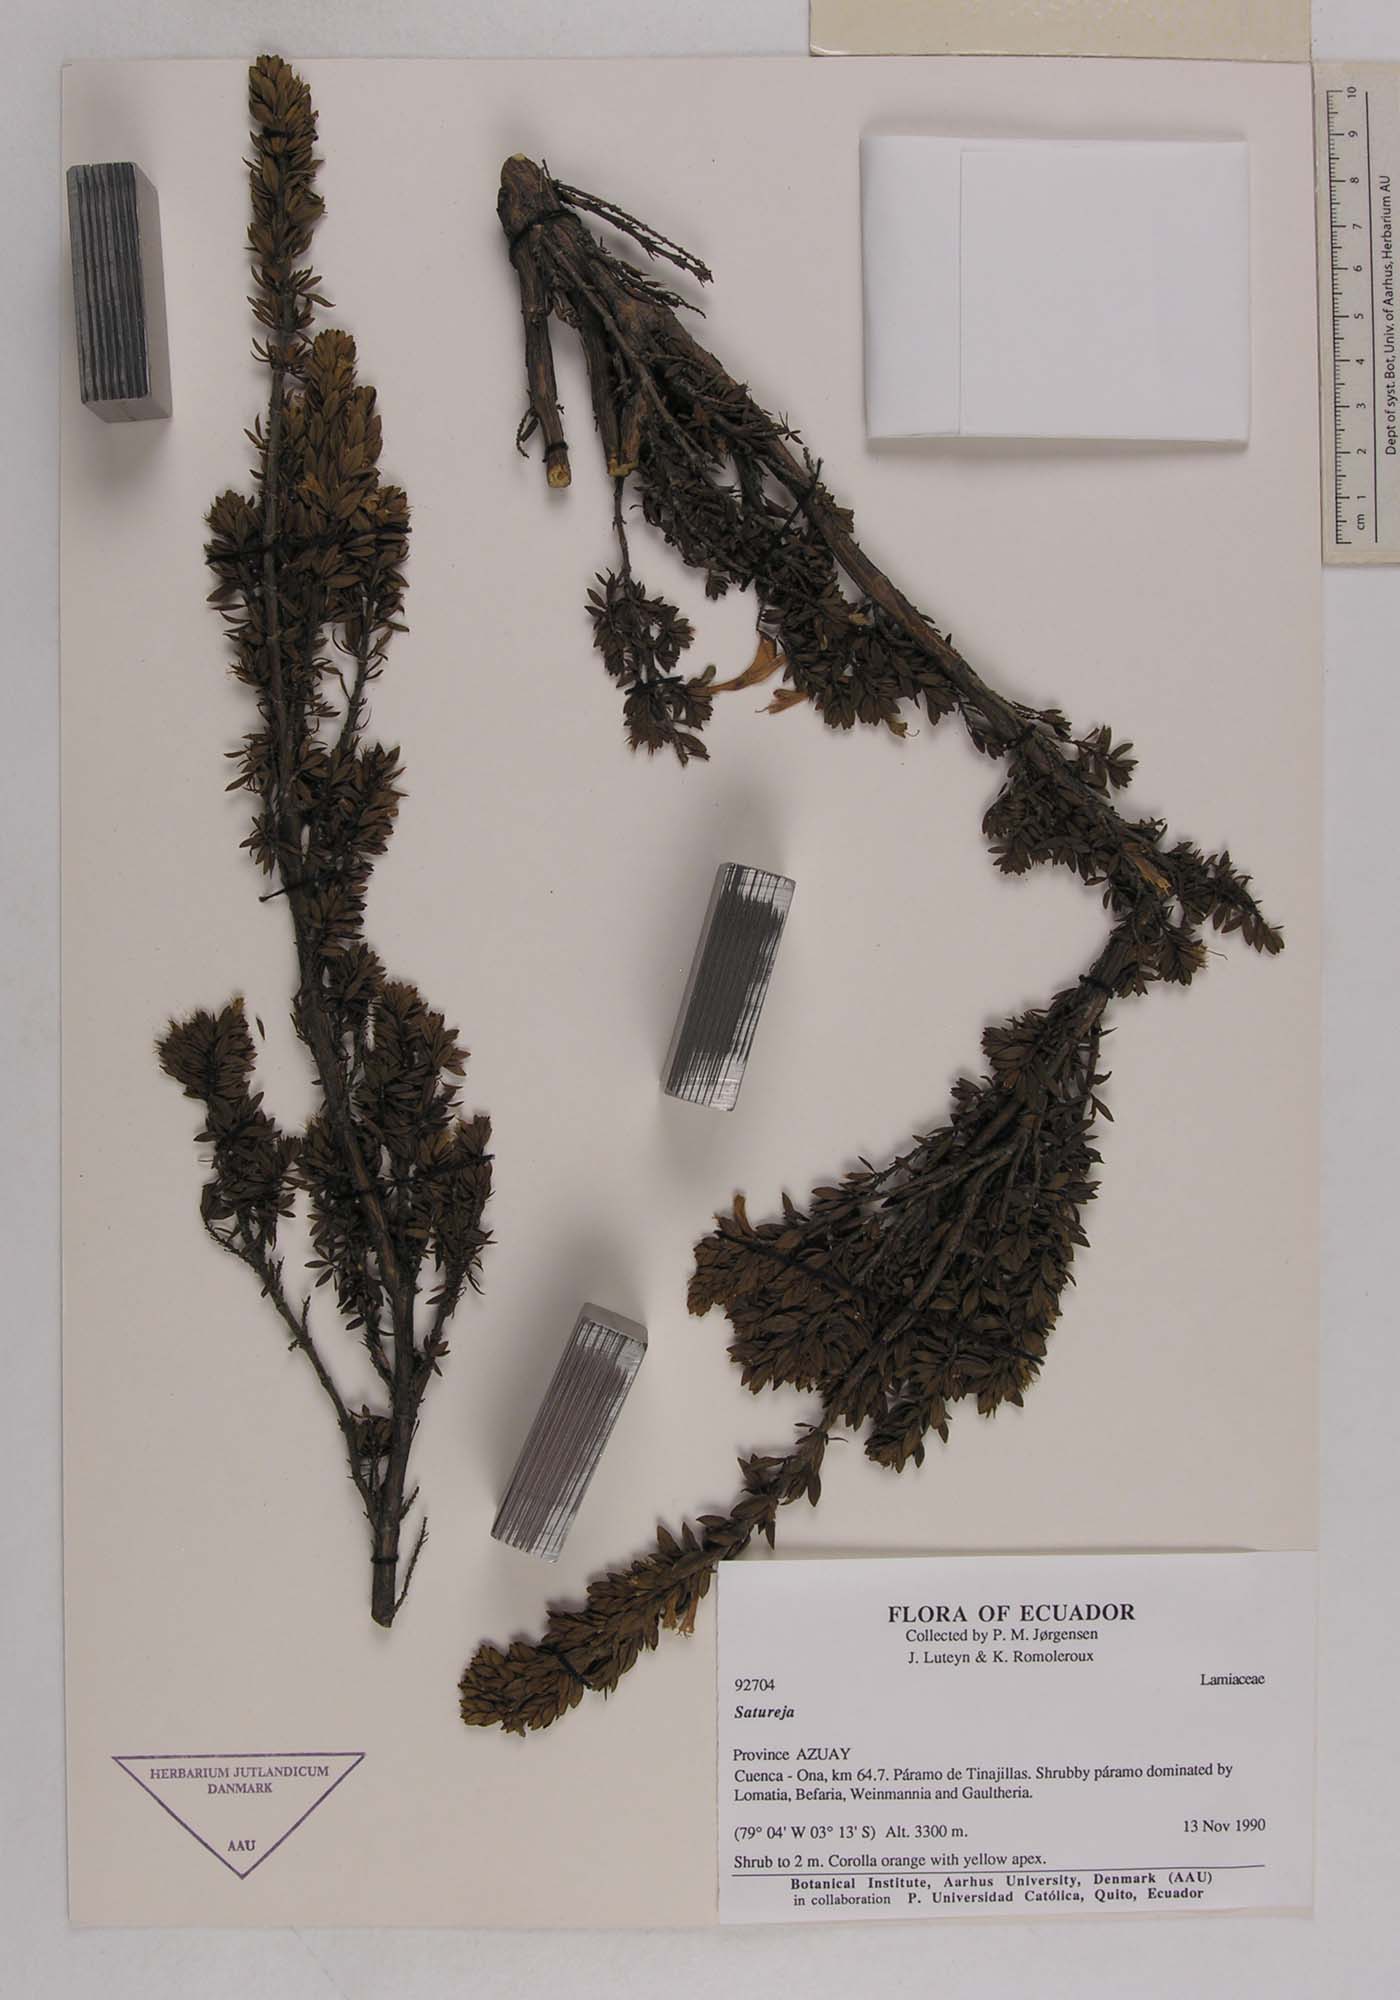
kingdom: Plantae
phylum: Tracheophyta
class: Magnoliopsida
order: Lamiales
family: Lamiaceae
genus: Clinopodium
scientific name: Clinopodium taxifolium
